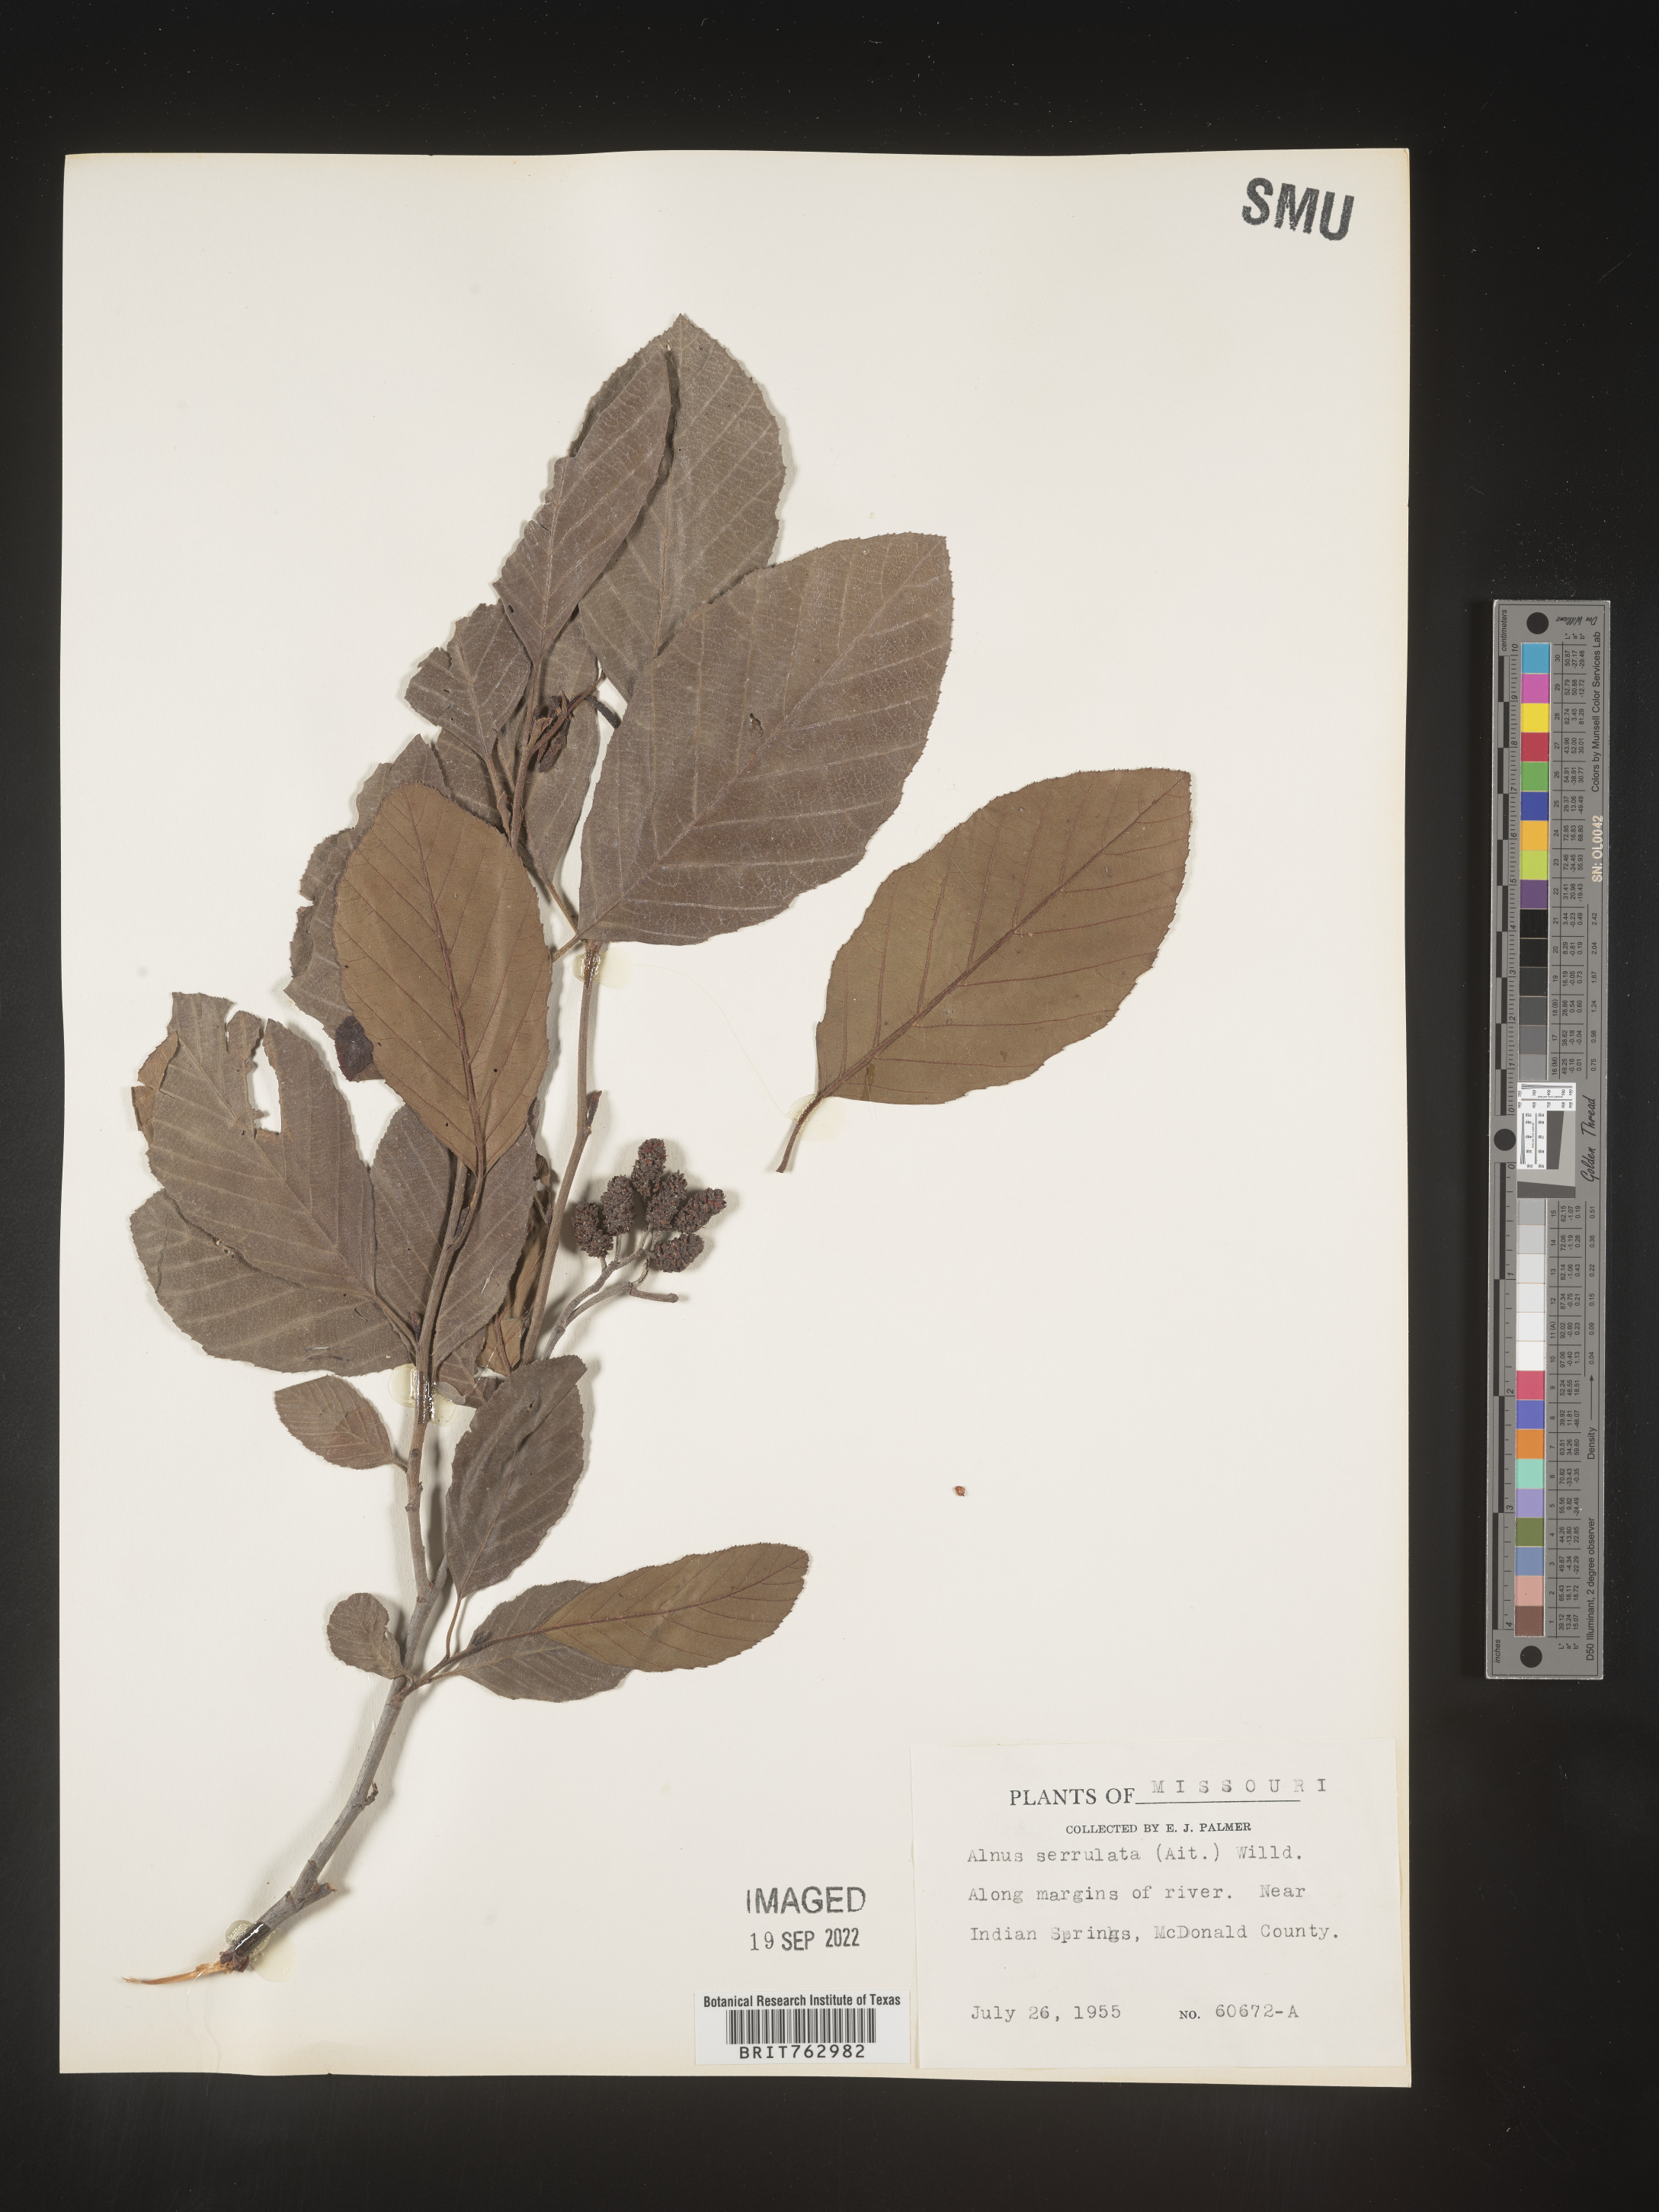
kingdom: Plantae
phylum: Tracheophyta
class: Magnoliopsida
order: Fagales
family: Betulaceae
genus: Alnus
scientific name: Alnus serrulata
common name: Hazel alder
